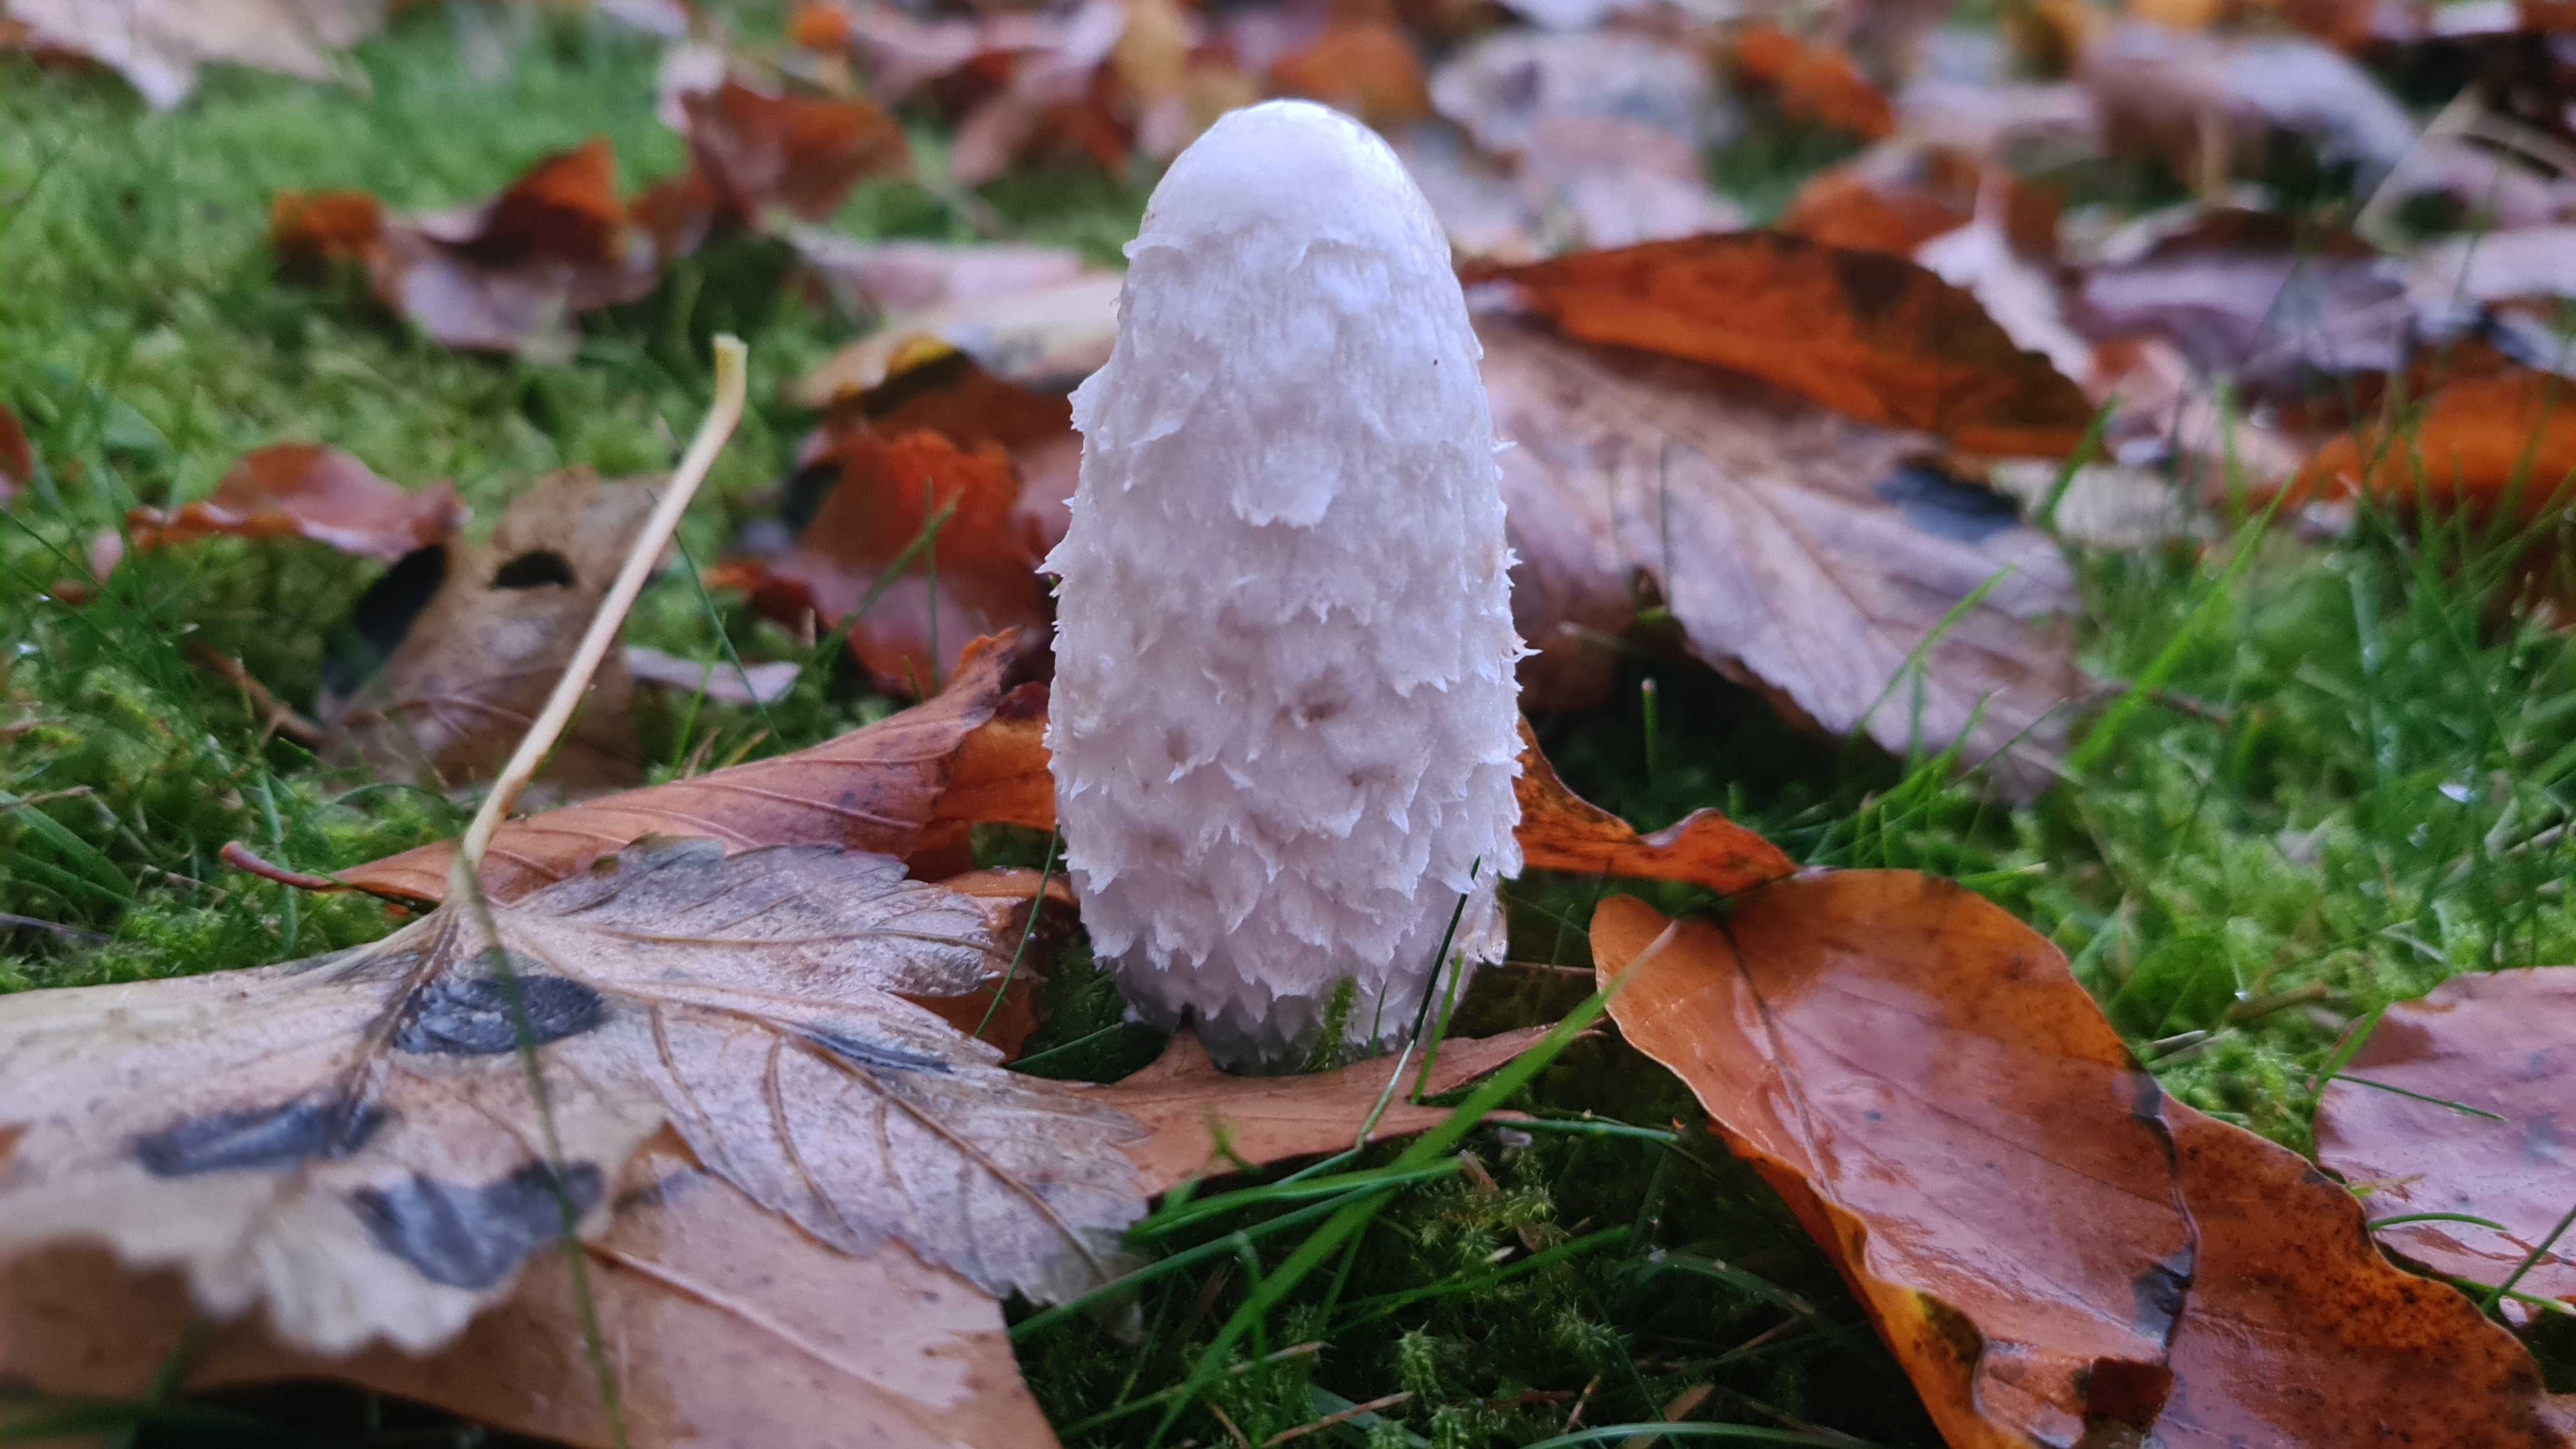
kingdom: Fungi
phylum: Basidiomycota
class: Agaricomycetes
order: Agaricales
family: Agaricaceae
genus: Coprinus
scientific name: Coprinus comatus
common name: stor parykhat
